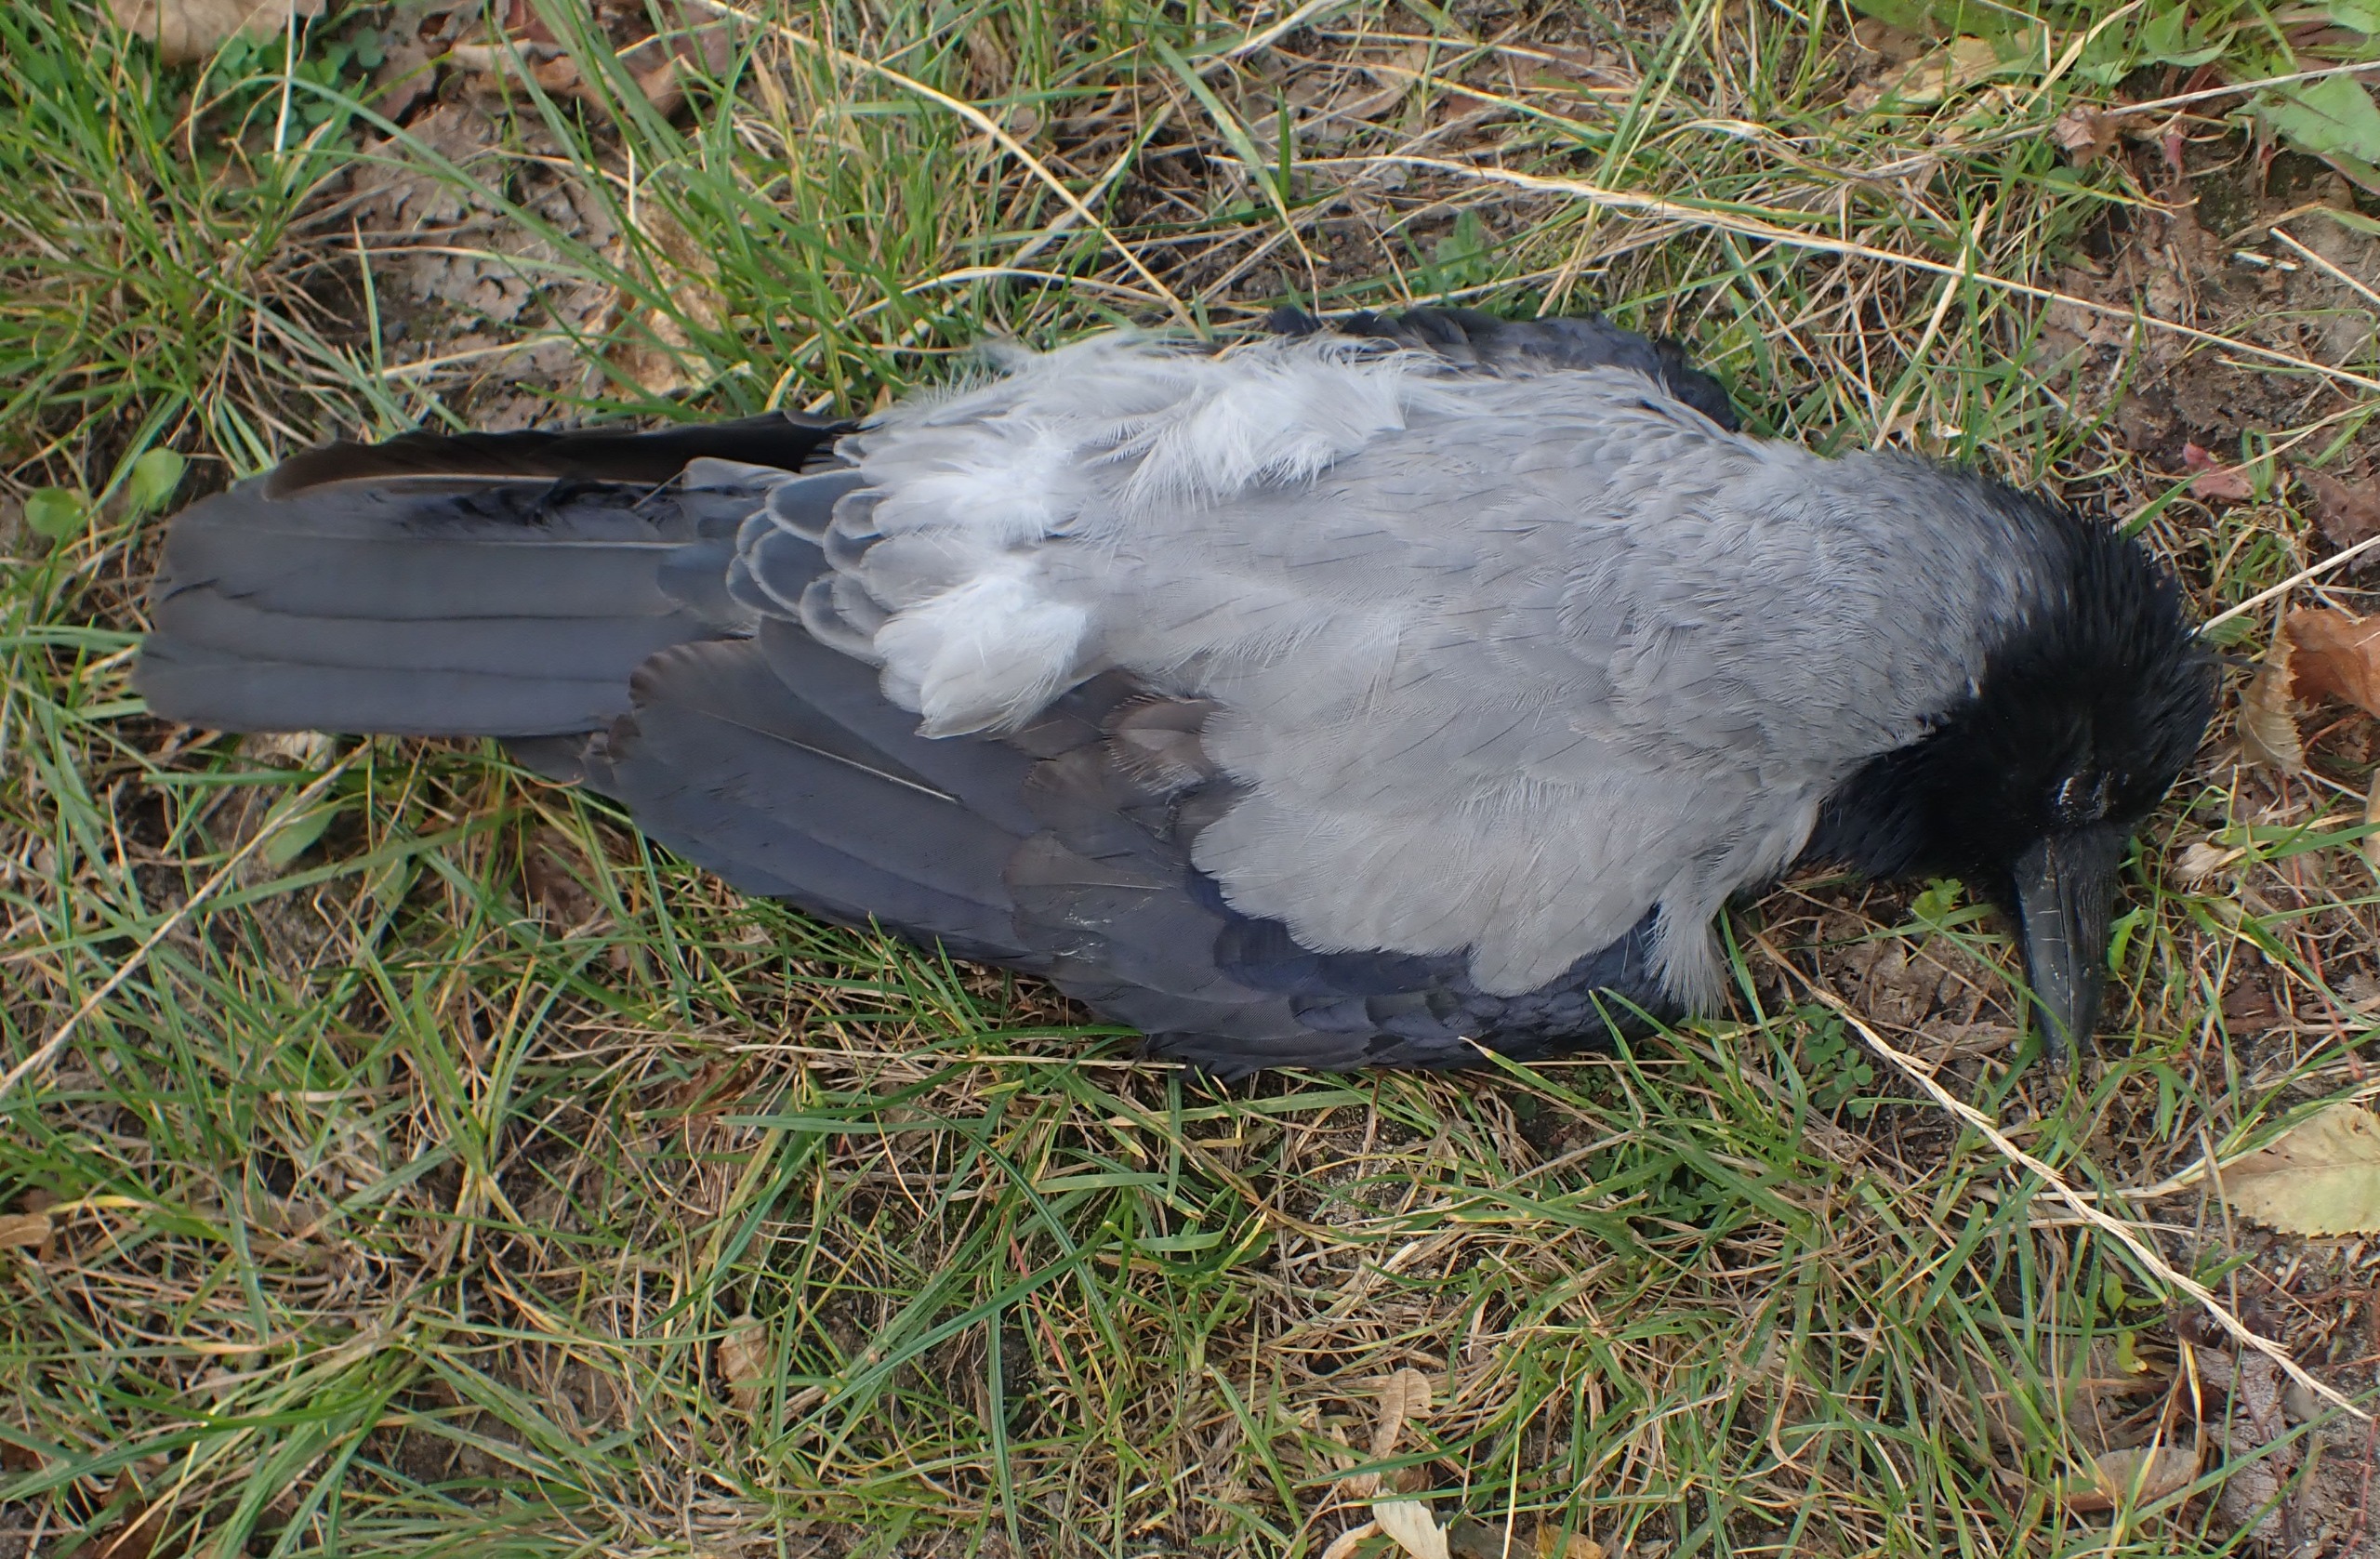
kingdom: Animalia
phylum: Chordata
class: Aves
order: Passeriformes
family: Corvidae
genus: Corvus
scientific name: Corvus cornix
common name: Gråkrage
